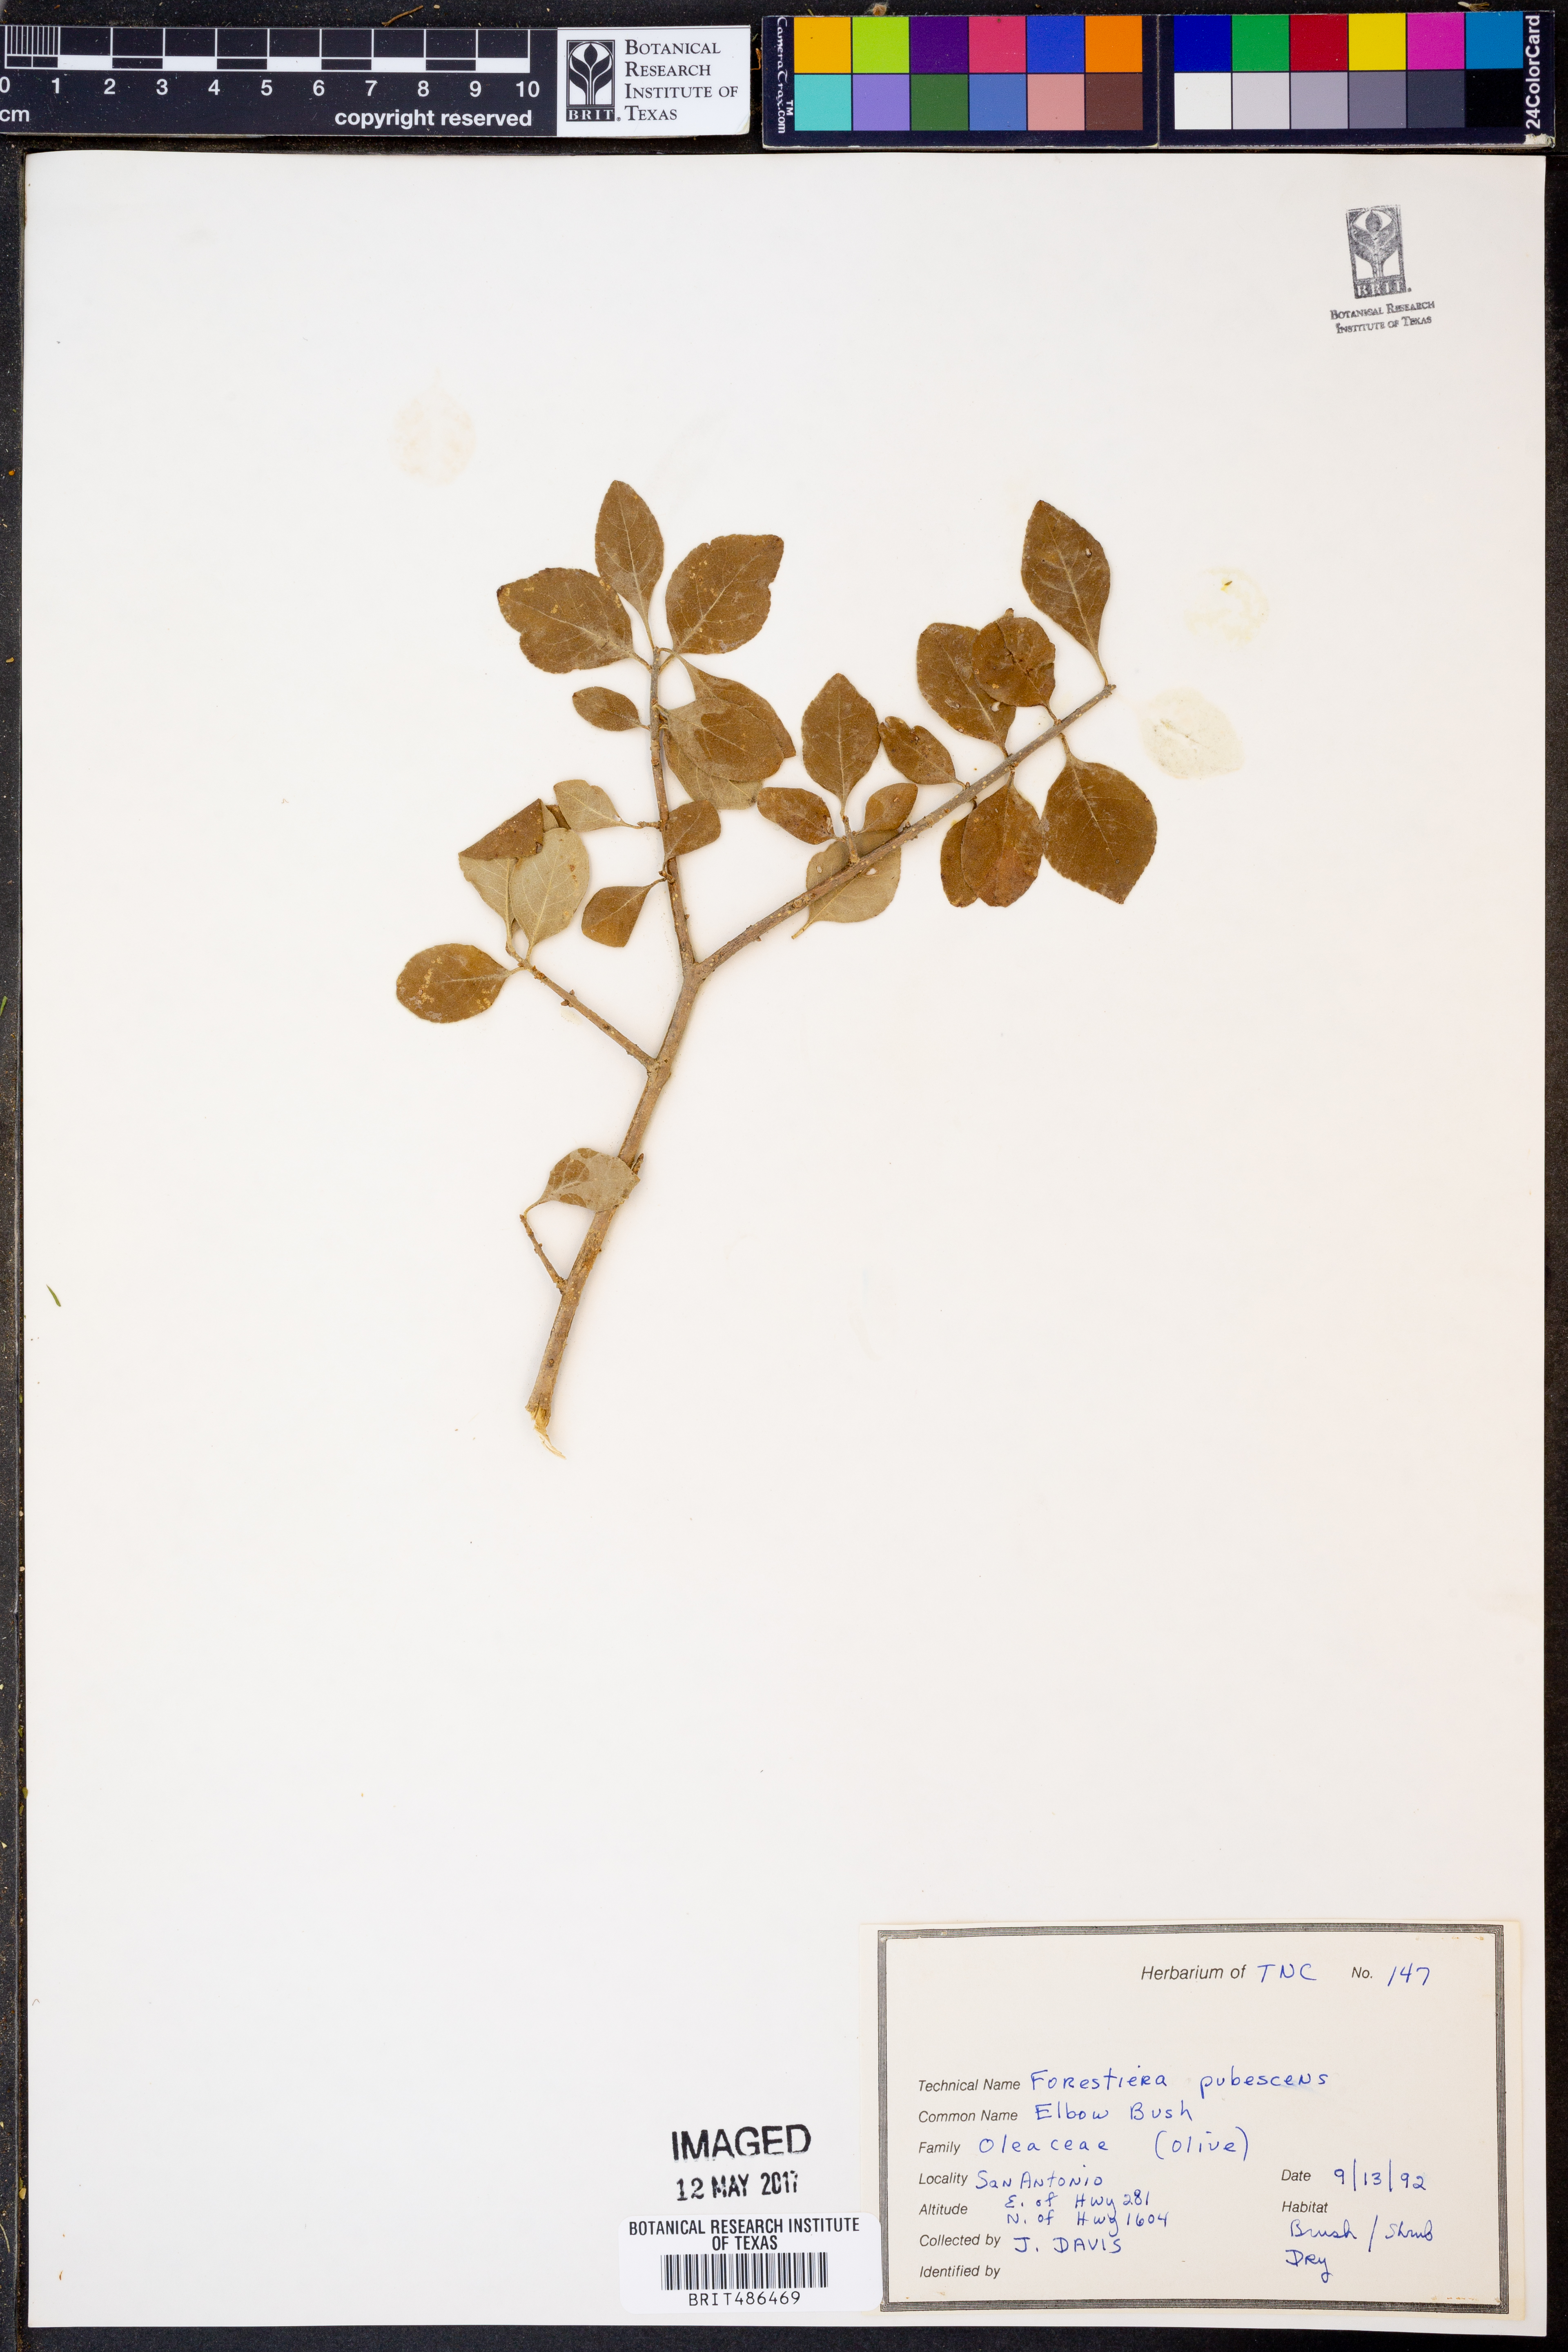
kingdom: Plantae
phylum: Tracheophyta
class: Magnoliopsida
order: Lamiales
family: Oleaceae
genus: Forestiera
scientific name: Forestiera pubescens
